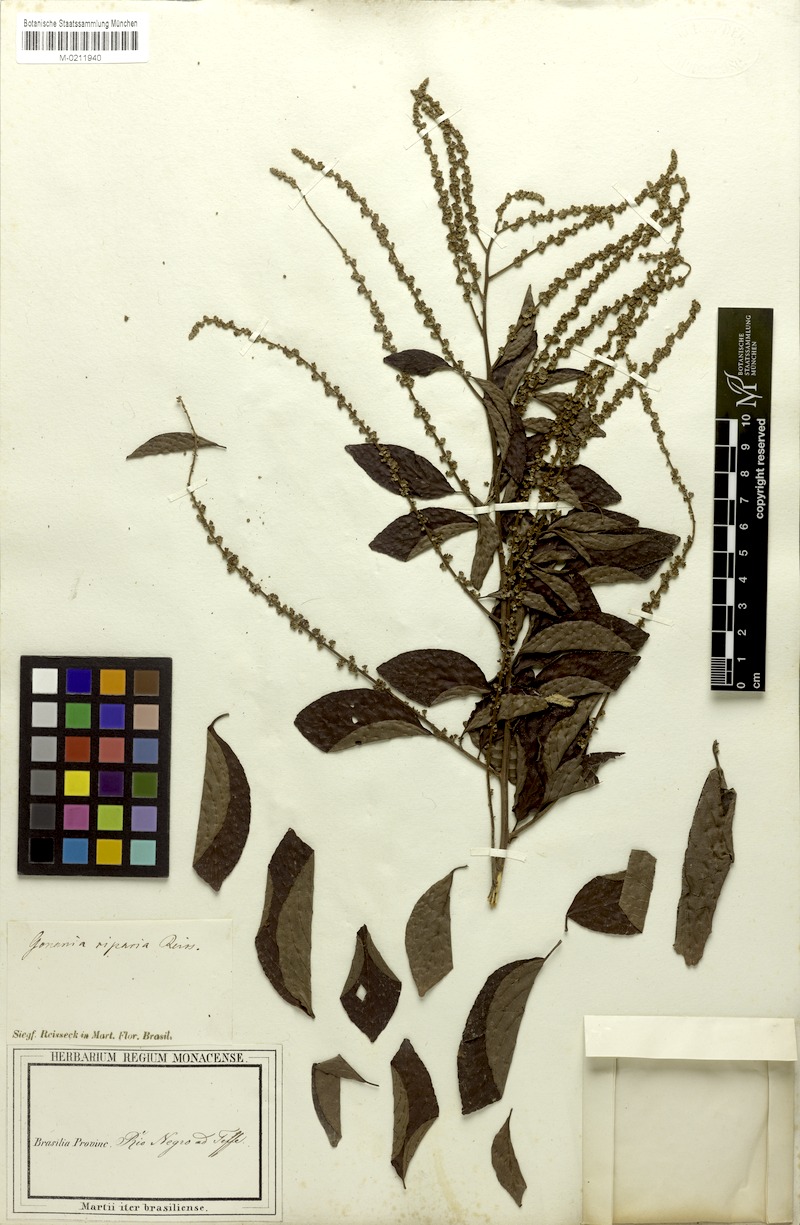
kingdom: Plantae
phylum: Tracheophyta
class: Magnoliopsida
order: Rosales
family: Rhamnaceae
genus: Gouania
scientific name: Gouania riparia
